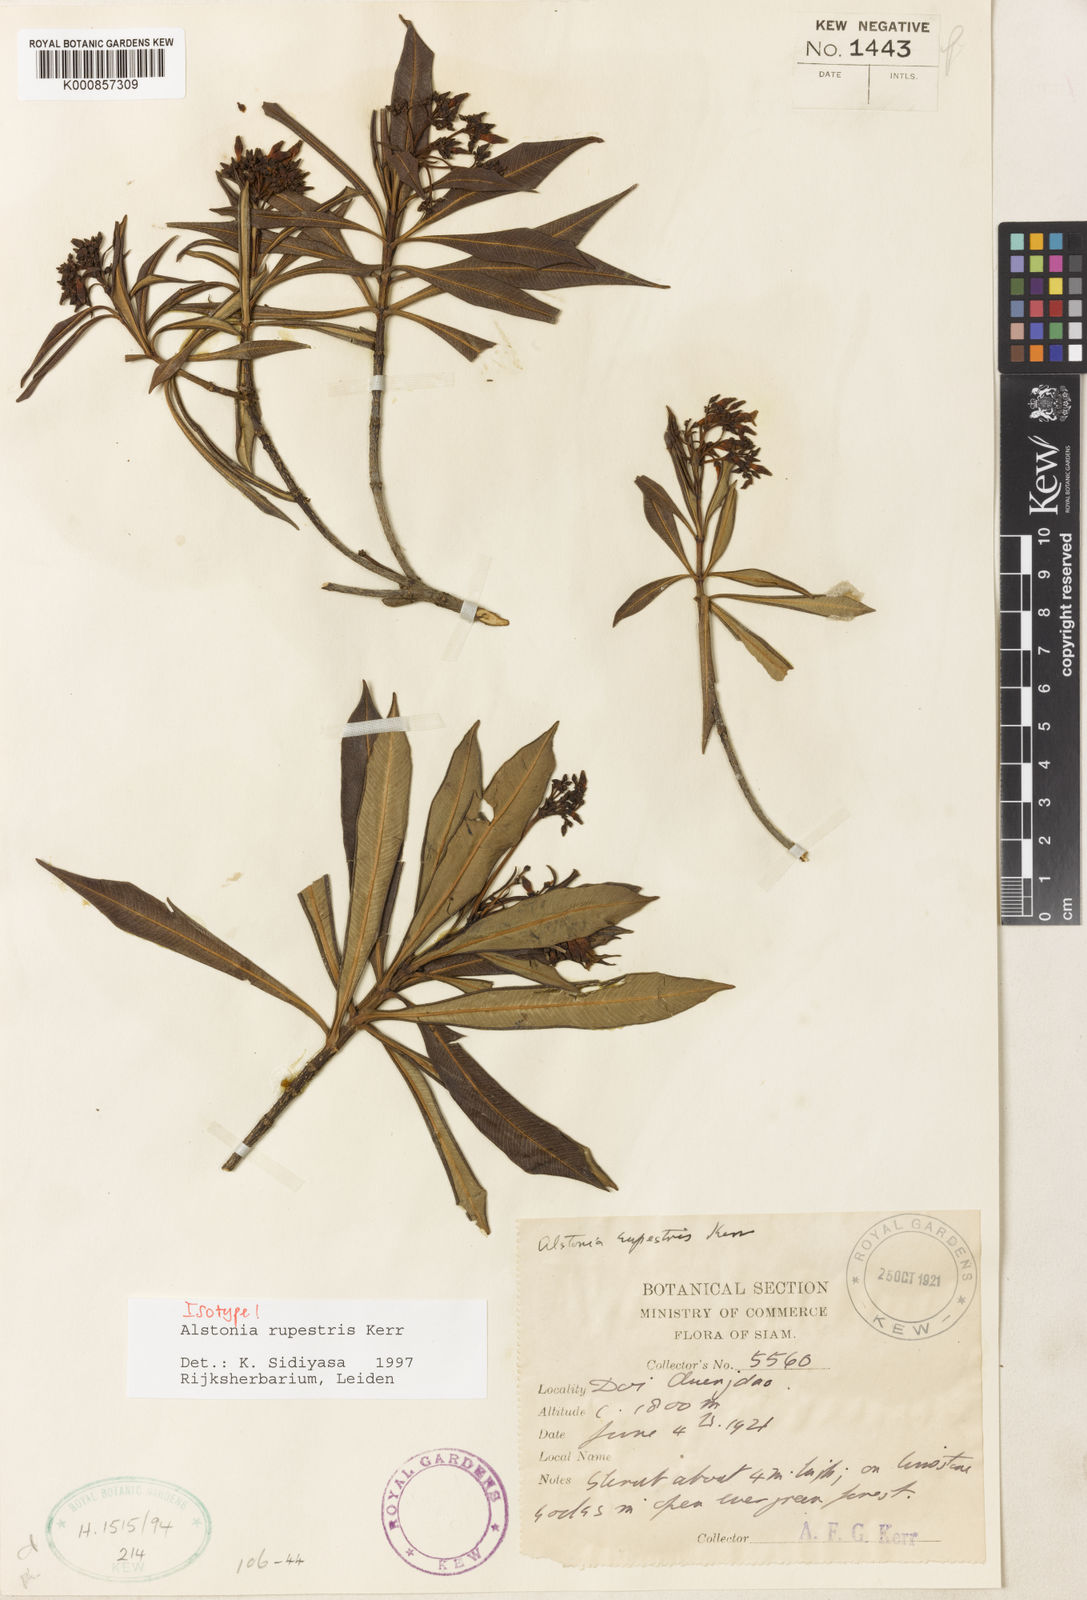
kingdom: Plantae
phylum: Tracheophyta
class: Magnoliopsida
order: Gentianales
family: Apocynaceae
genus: Alstonia
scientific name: Alstonia rupestris
